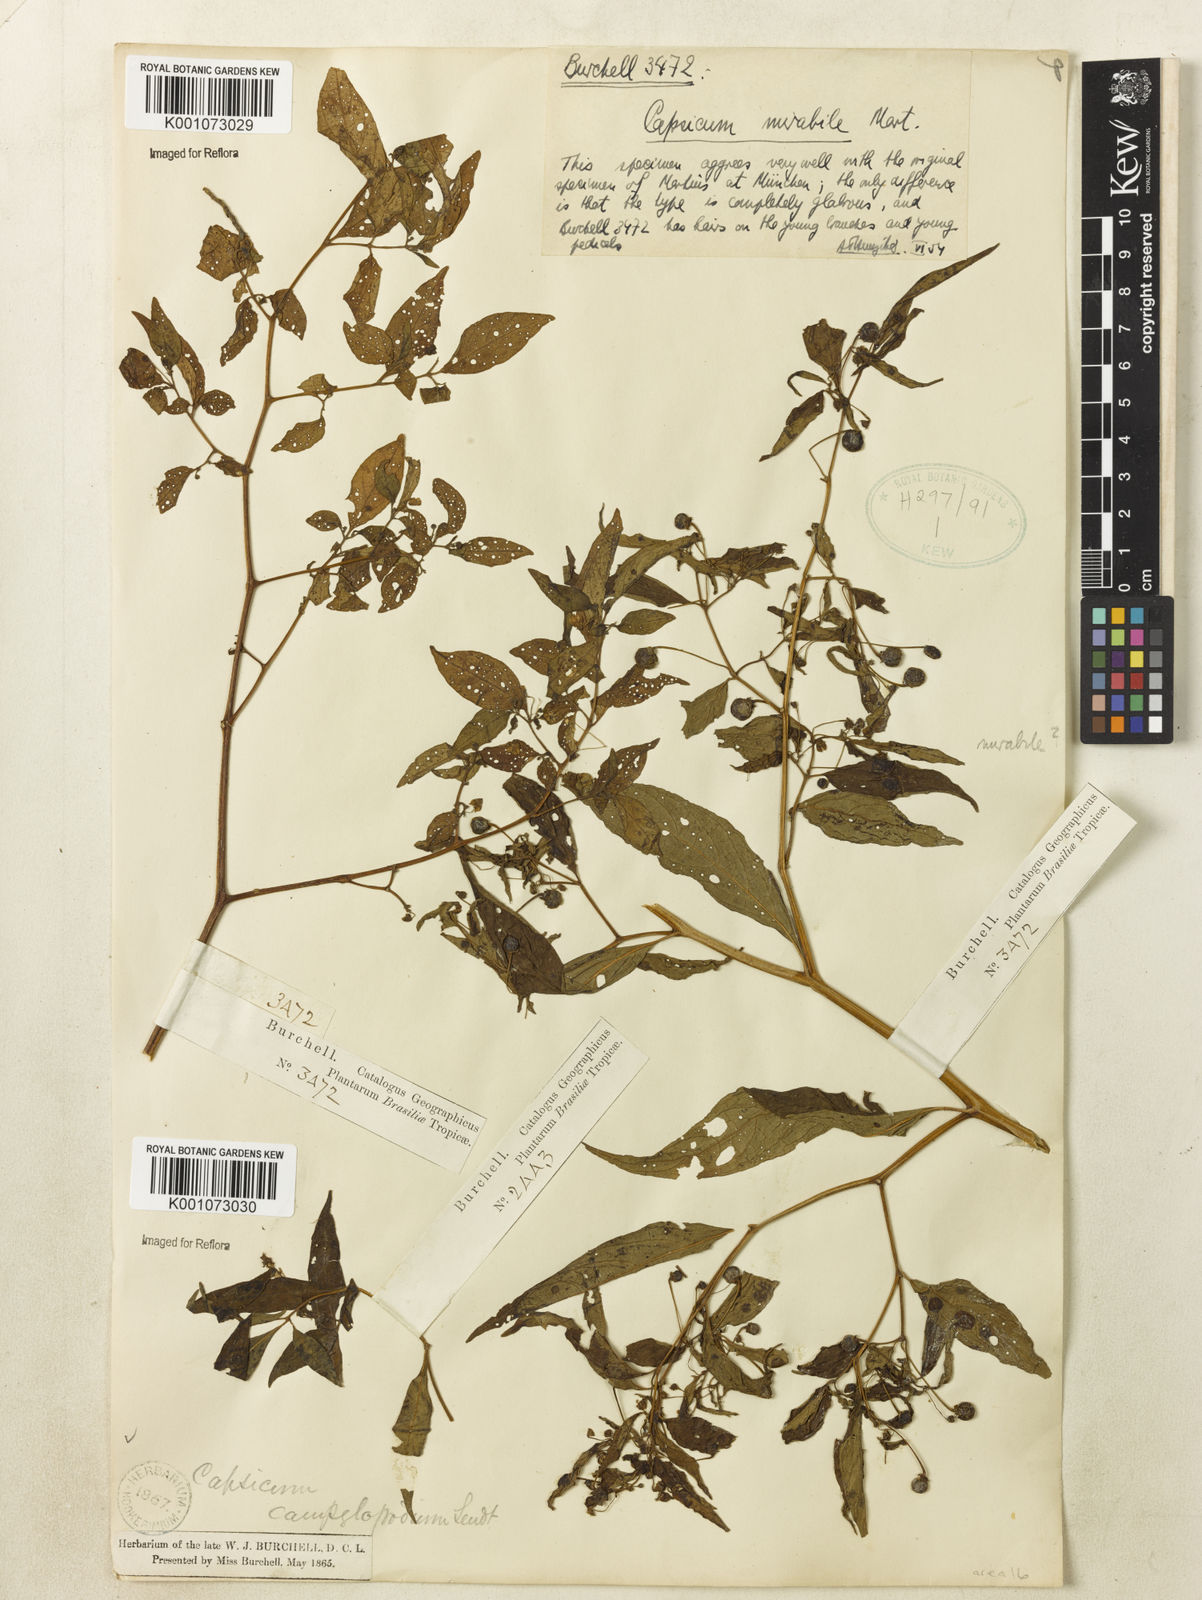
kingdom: Plantae
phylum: Tracheophyta
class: Magnoliopsida
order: Solanales
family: Solanaceae
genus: Capsicum
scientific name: Capsicum
